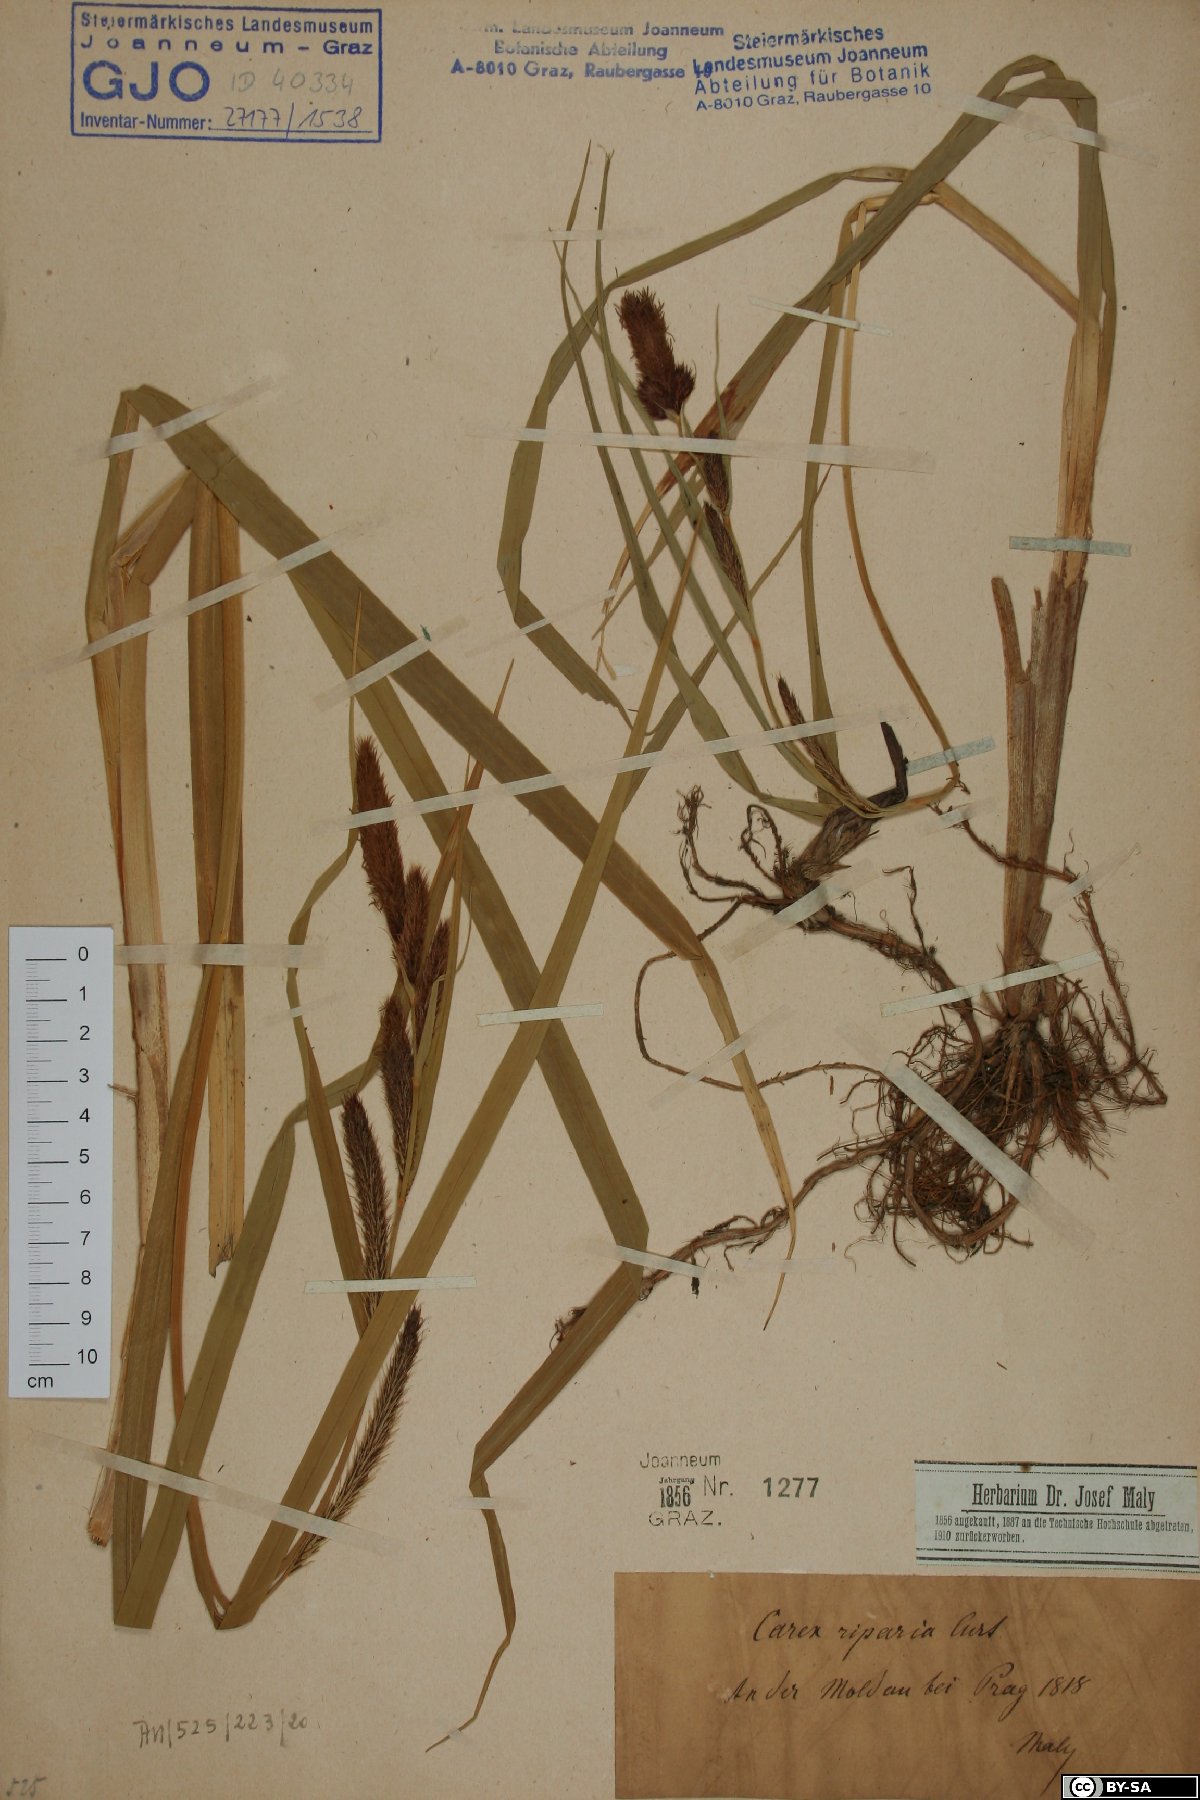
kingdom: Plantae
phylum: Tracheophyta
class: Liliopsida
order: Poales
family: Cyperaceae
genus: Carex
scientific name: Carex riparia
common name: Greater pond-sedge
